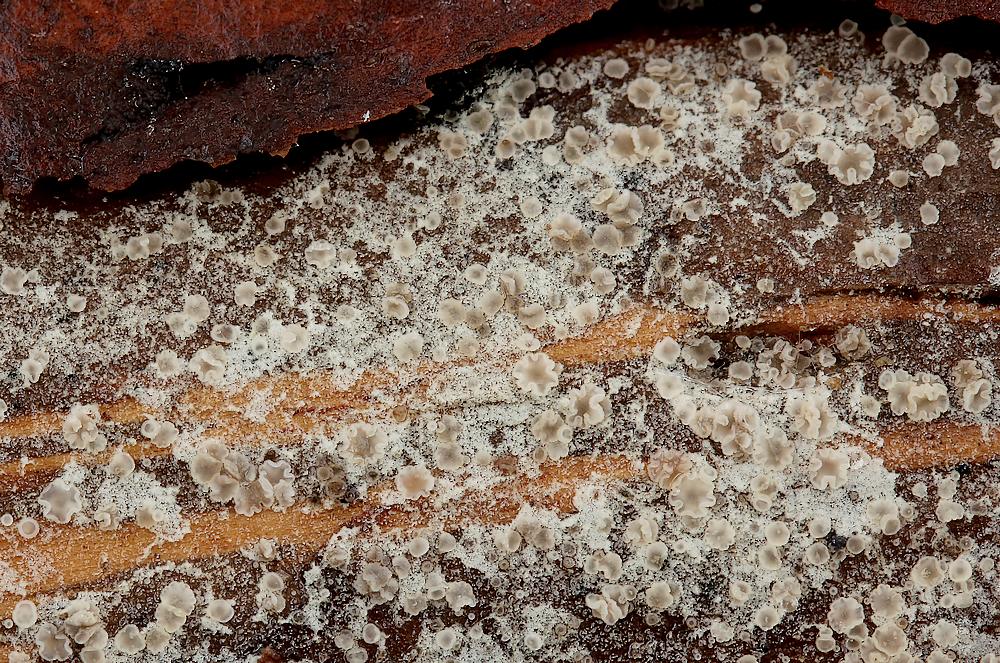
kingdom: Fungi
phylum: Ascomycota
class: Leotiomycetes
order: Helotiales
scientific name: Helotiales
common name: stilkskiveordenen
